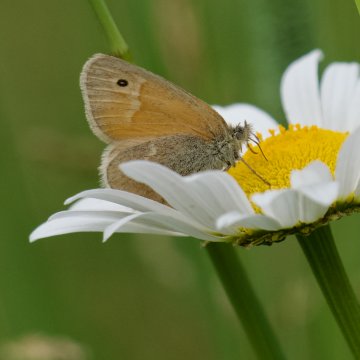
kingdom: Animalia
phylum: Arthropoda
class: Insecta
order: Lepidoptera
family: Nymphalidae
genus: Coenonympha
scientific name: Coenonympha tullia
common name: Large Heath
